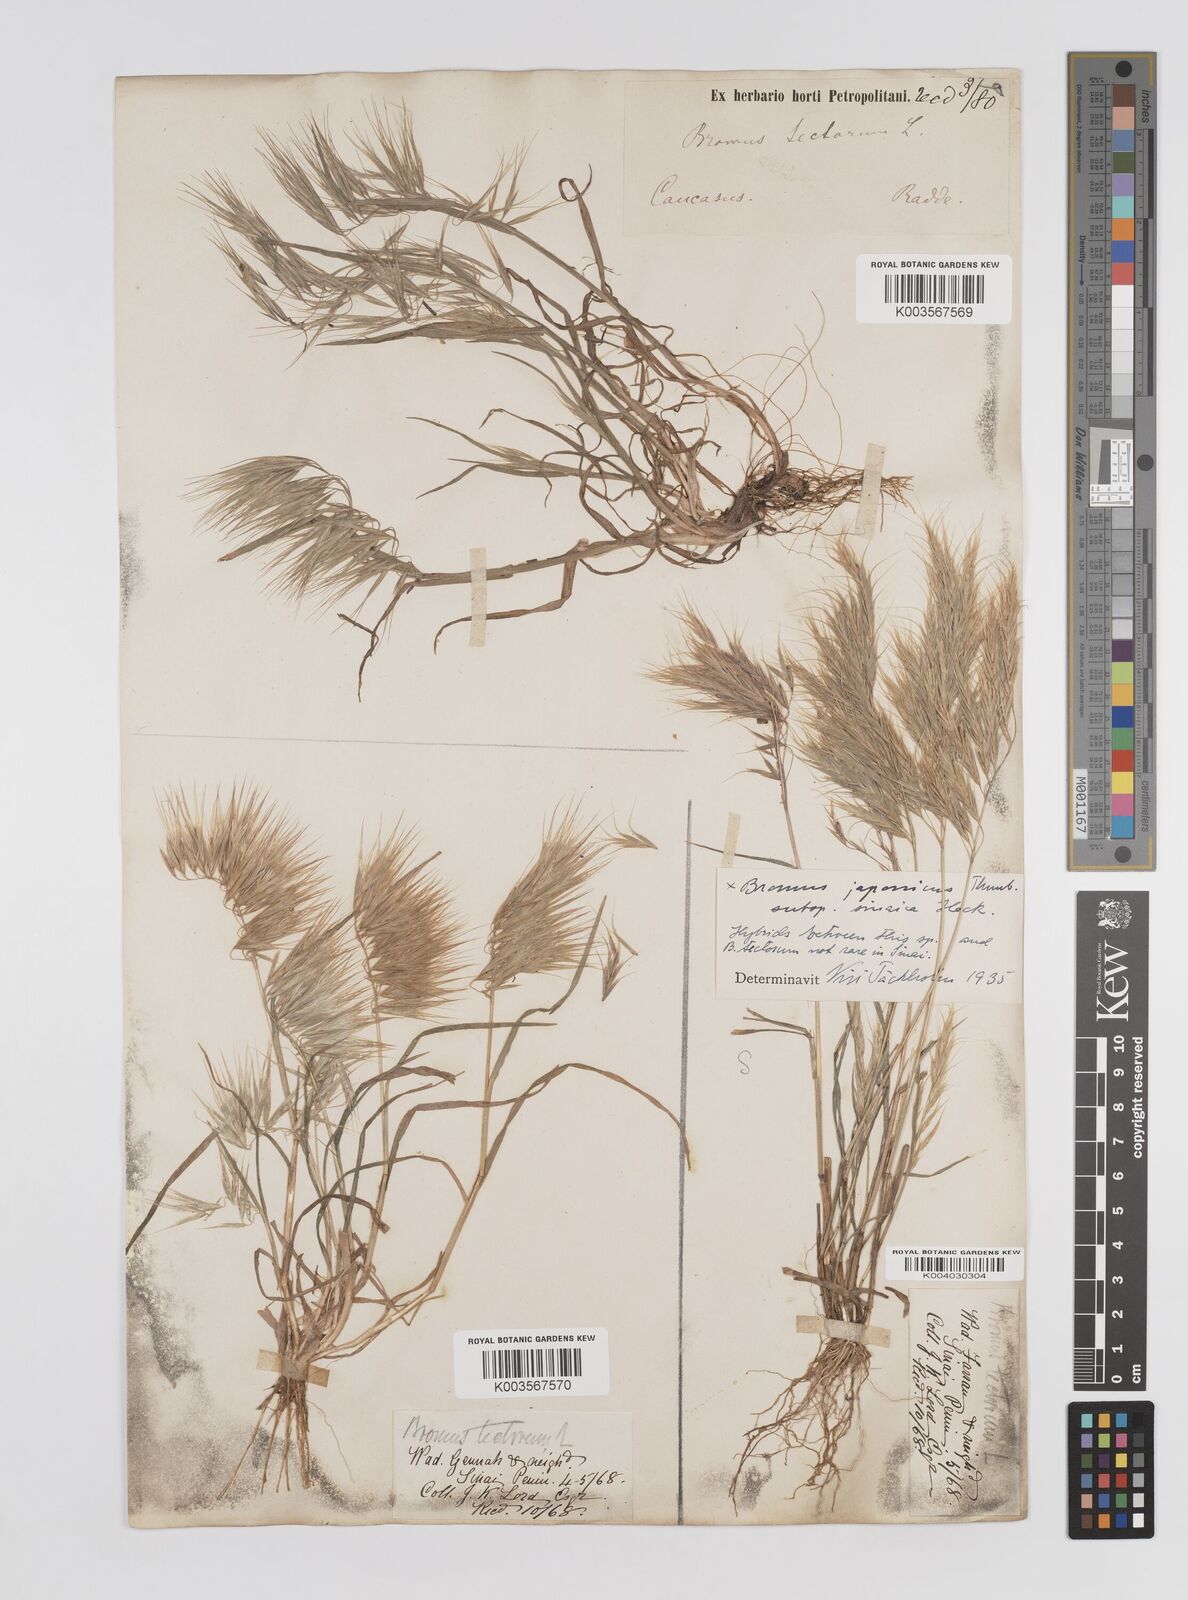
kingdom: Plantae
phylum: Tracheophyta
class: Liliopsida
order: Poales
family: Poaceae
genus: Bromus
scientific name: Bromus pectinatus
